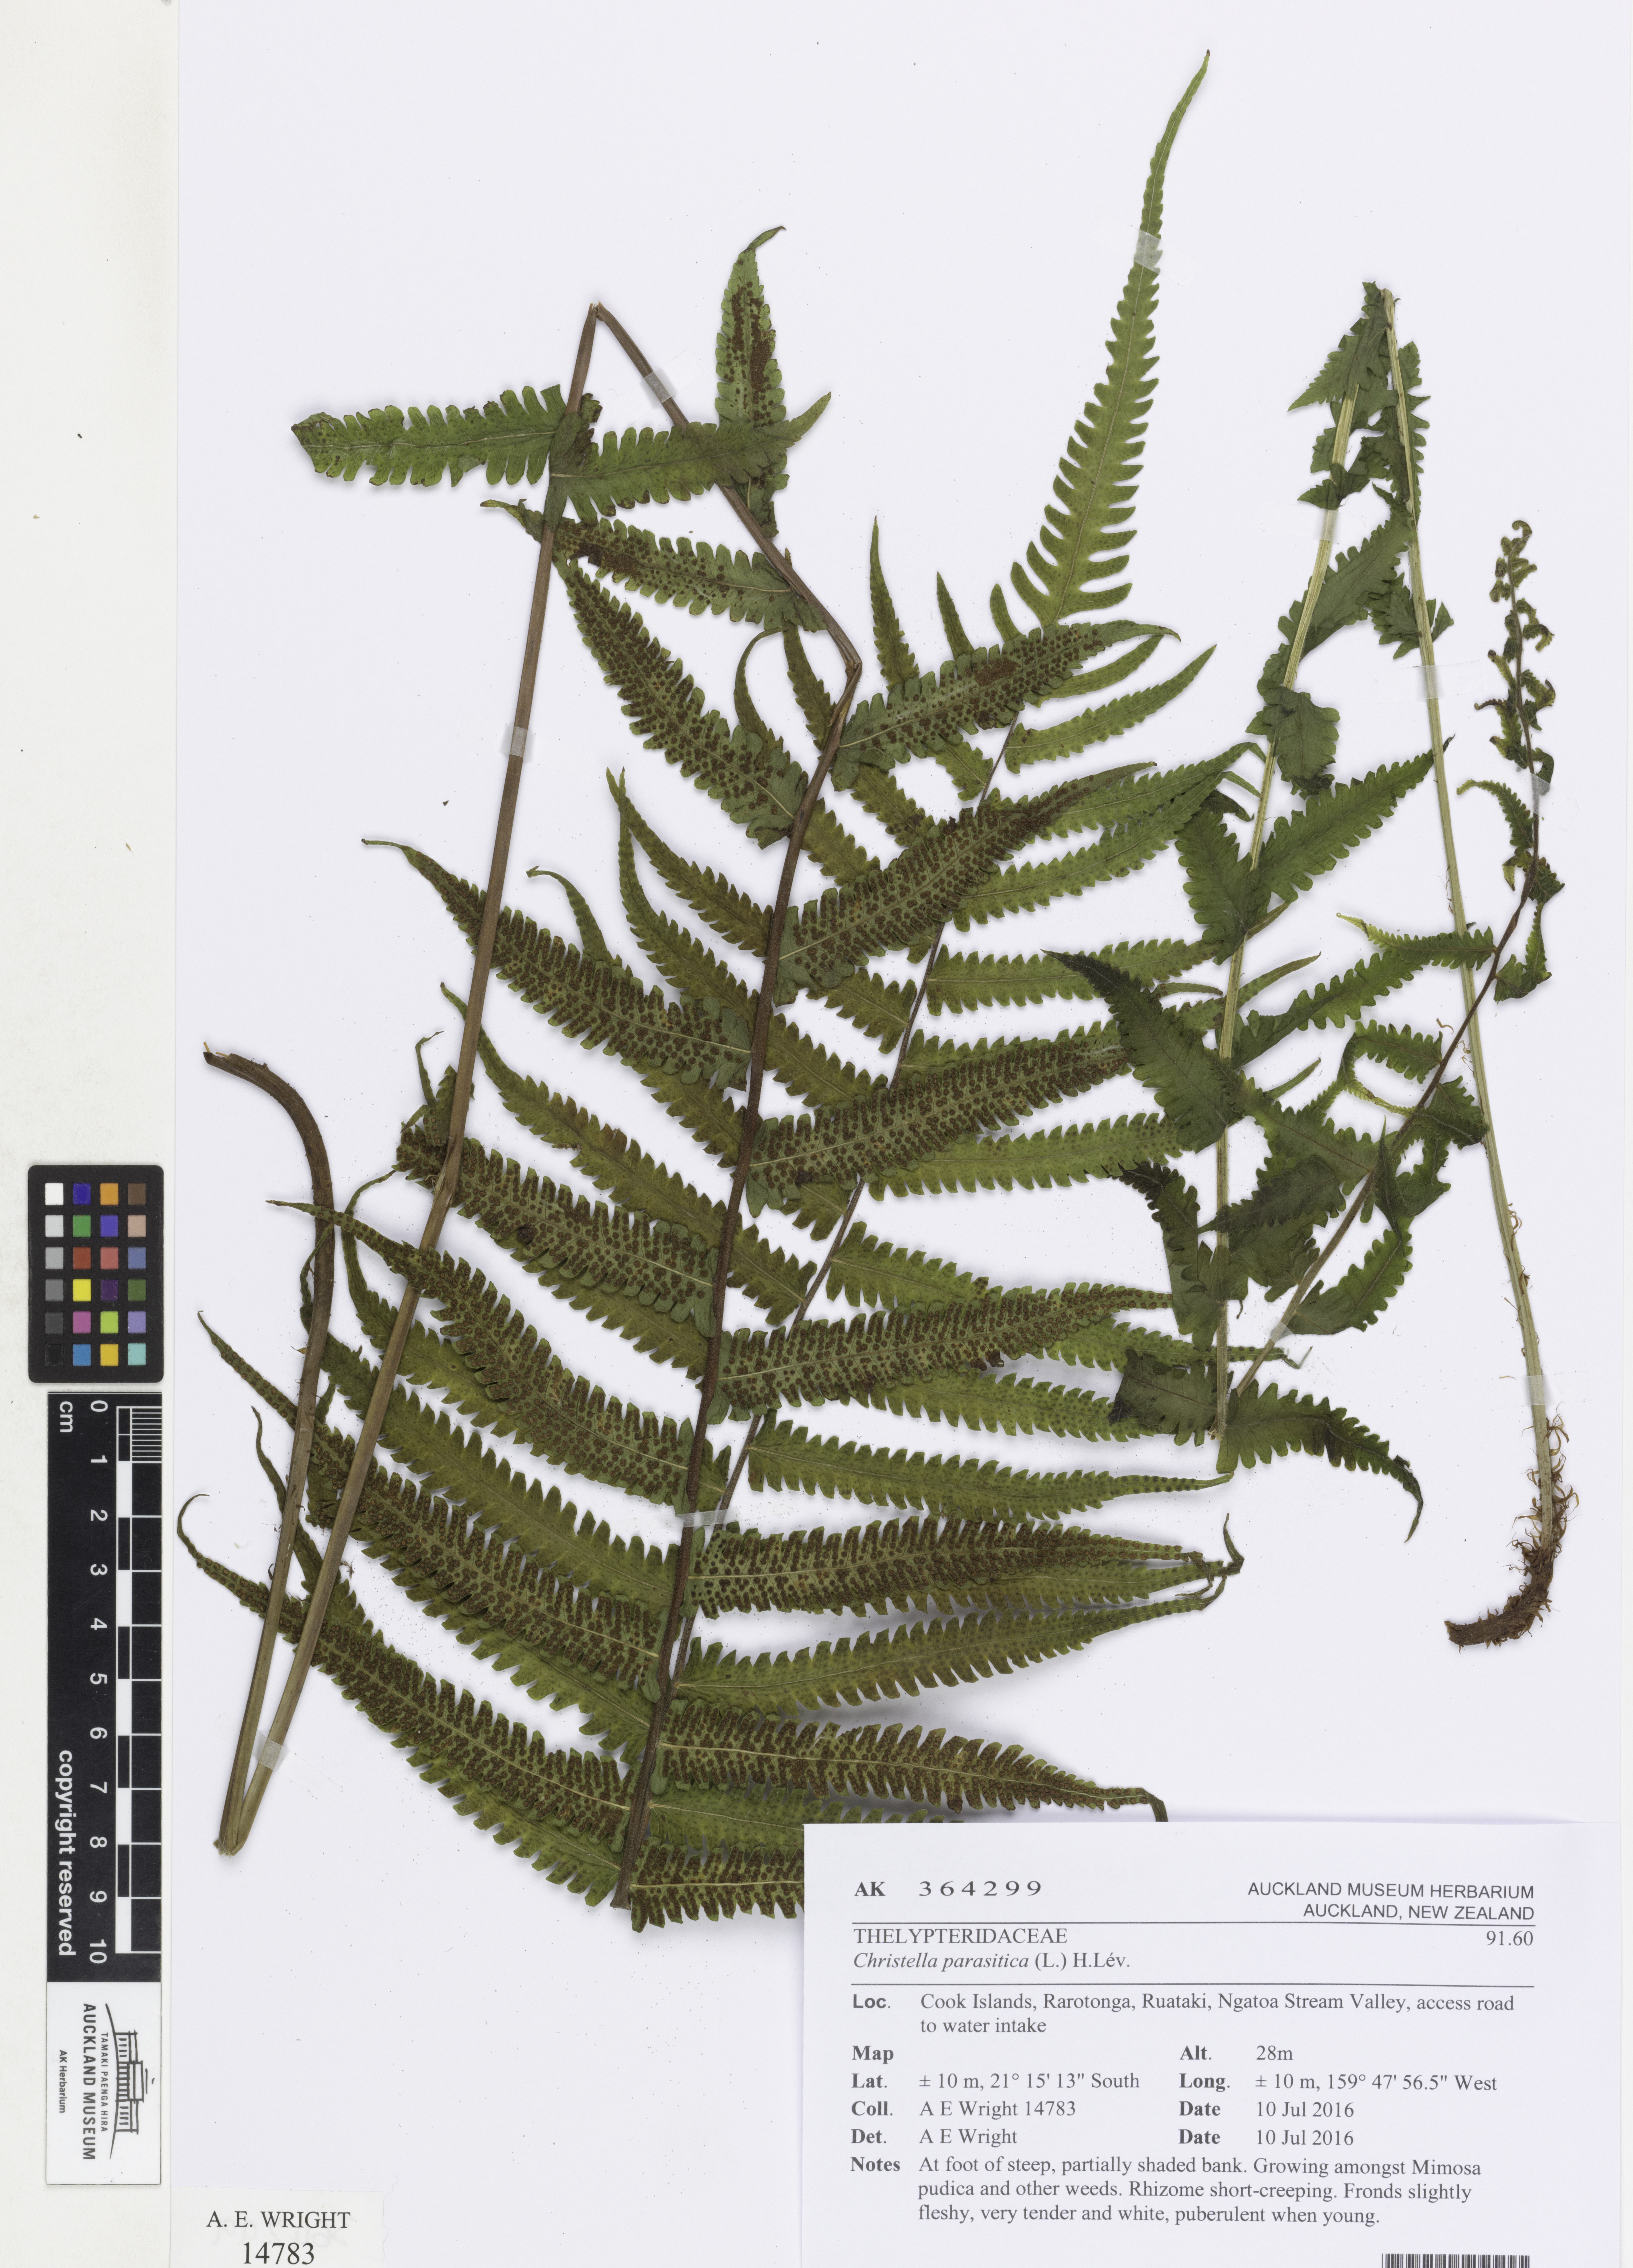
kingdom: Plantae
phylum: Tracheophyta
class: Polypodiopsida
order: Polypodiales
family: Thelypteridaceae
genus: Christella
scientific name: Christella parasitica
